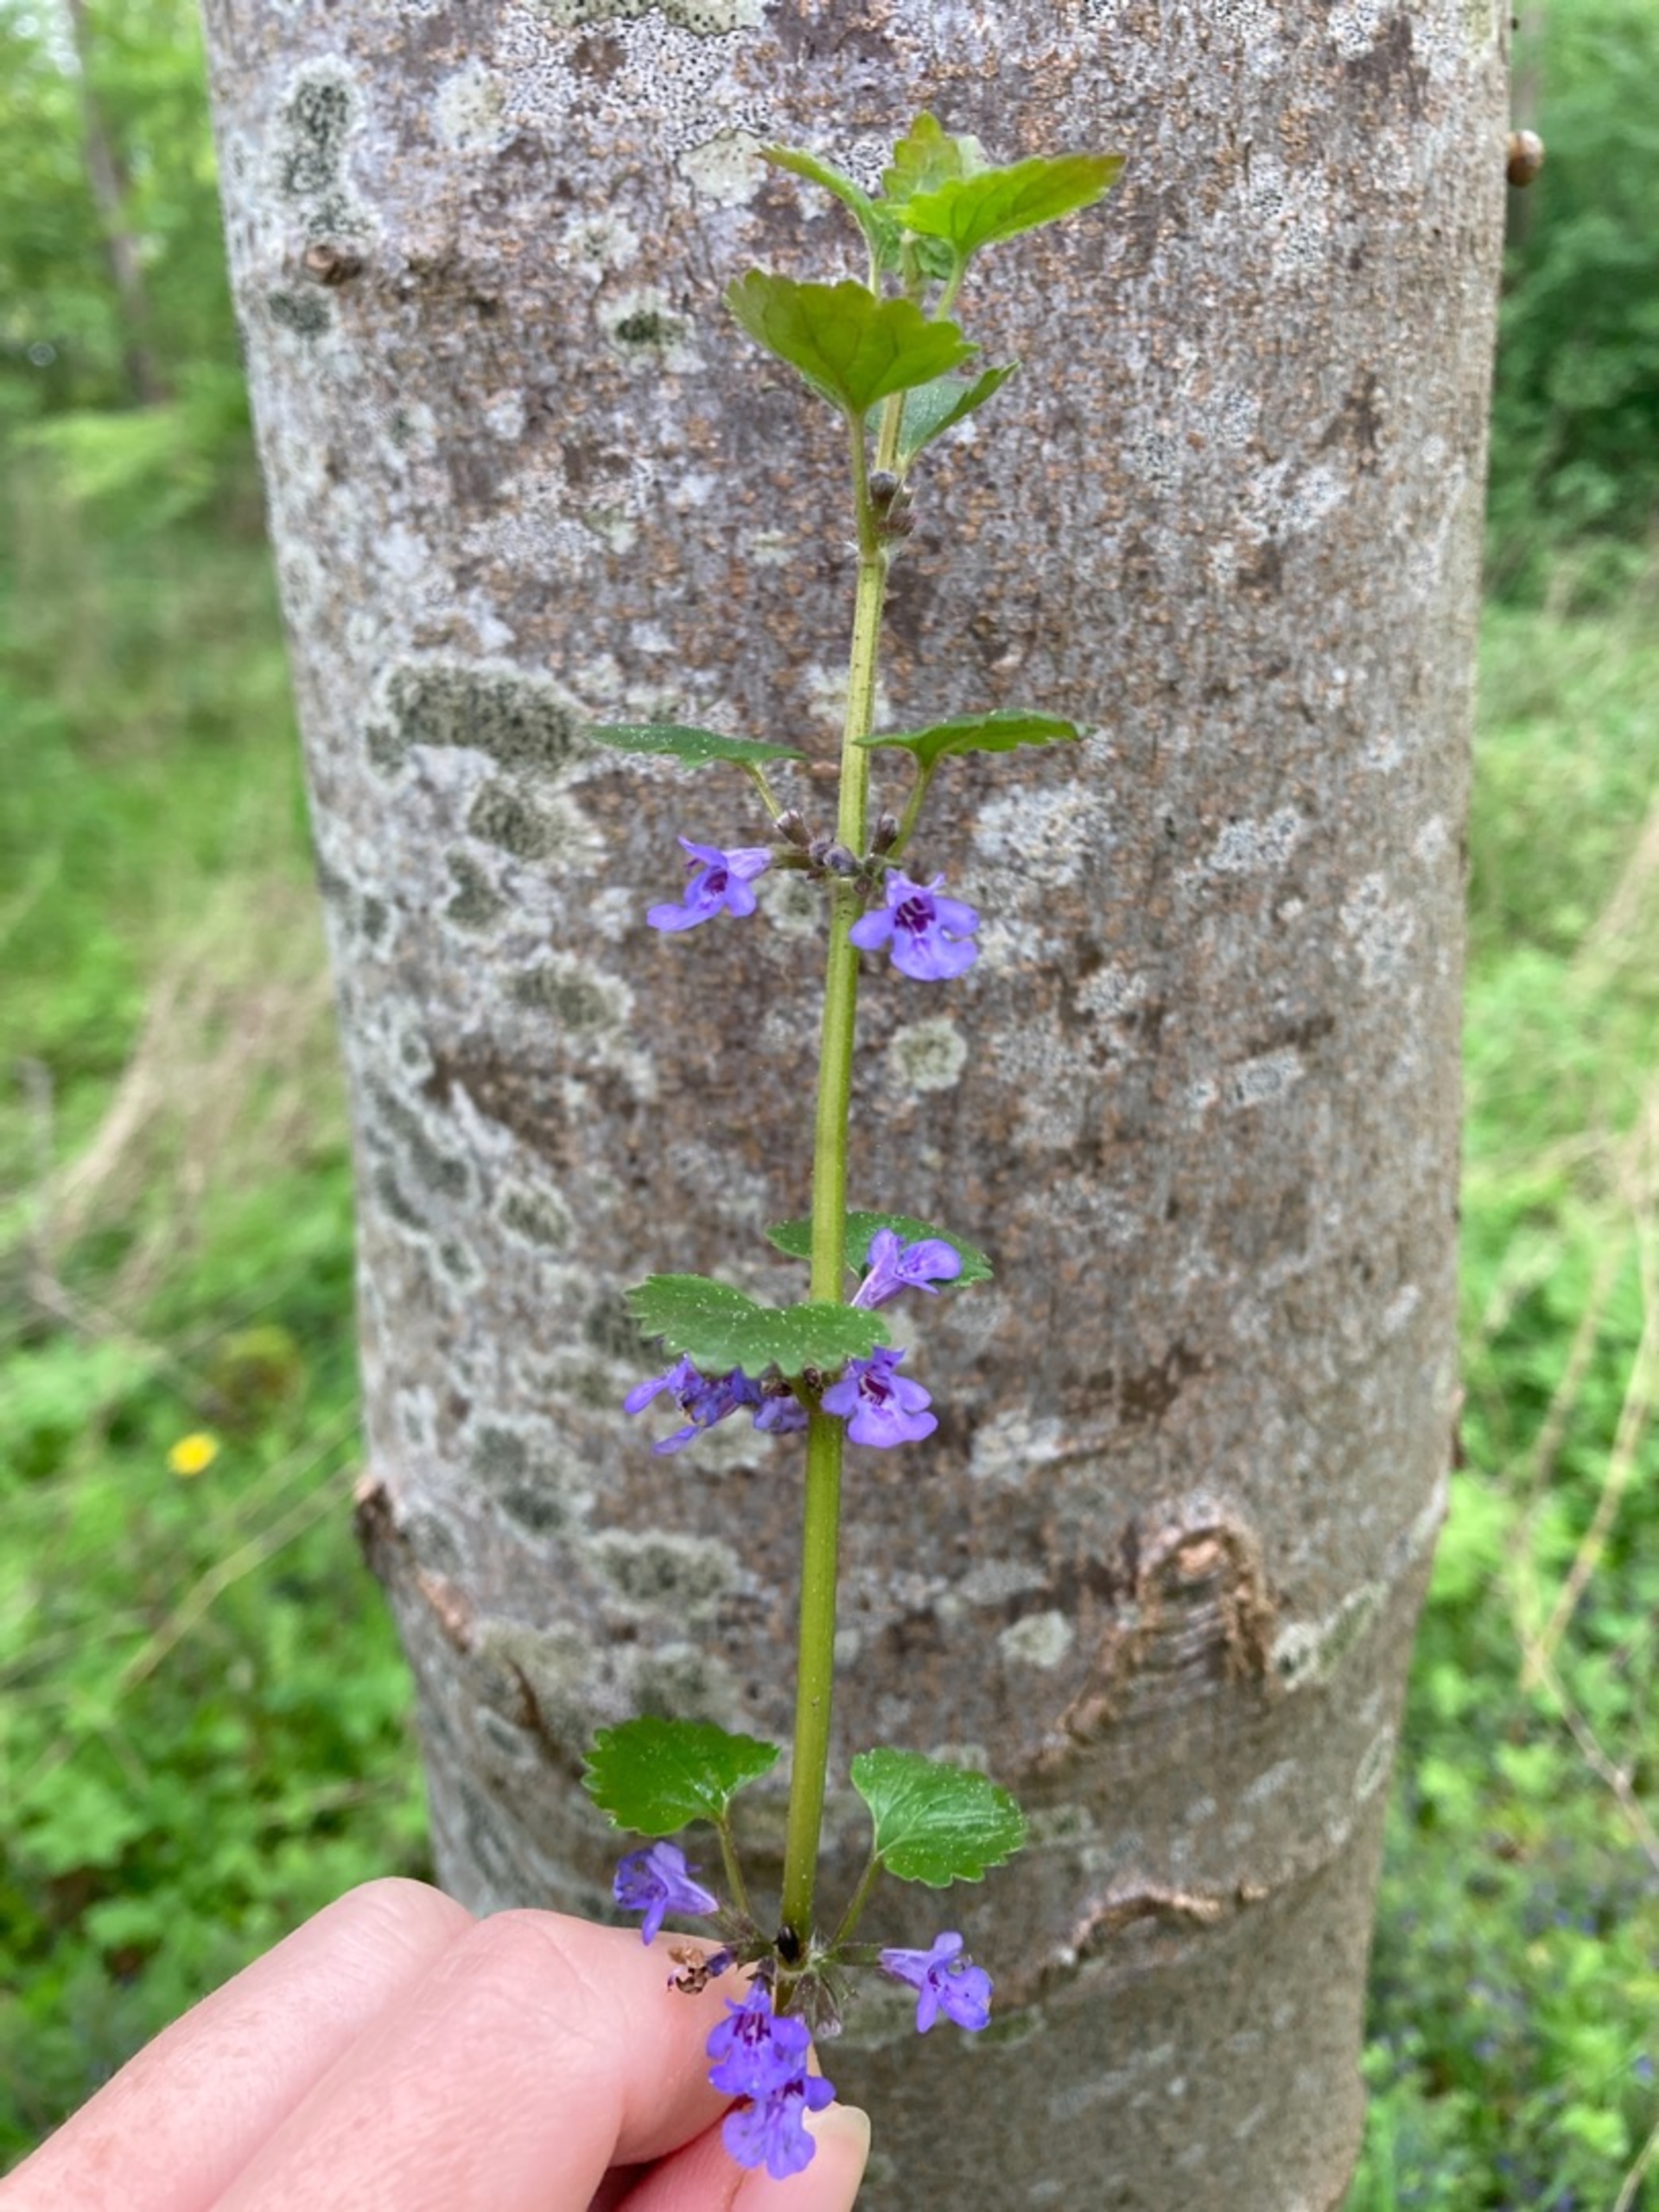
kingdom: Plantae
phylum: Tracheophyta
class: Magnoliopsida
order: Lamiales
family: Lamiaceae
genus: Glechoma
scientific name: Glechoma hederacea
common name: Korsknap
